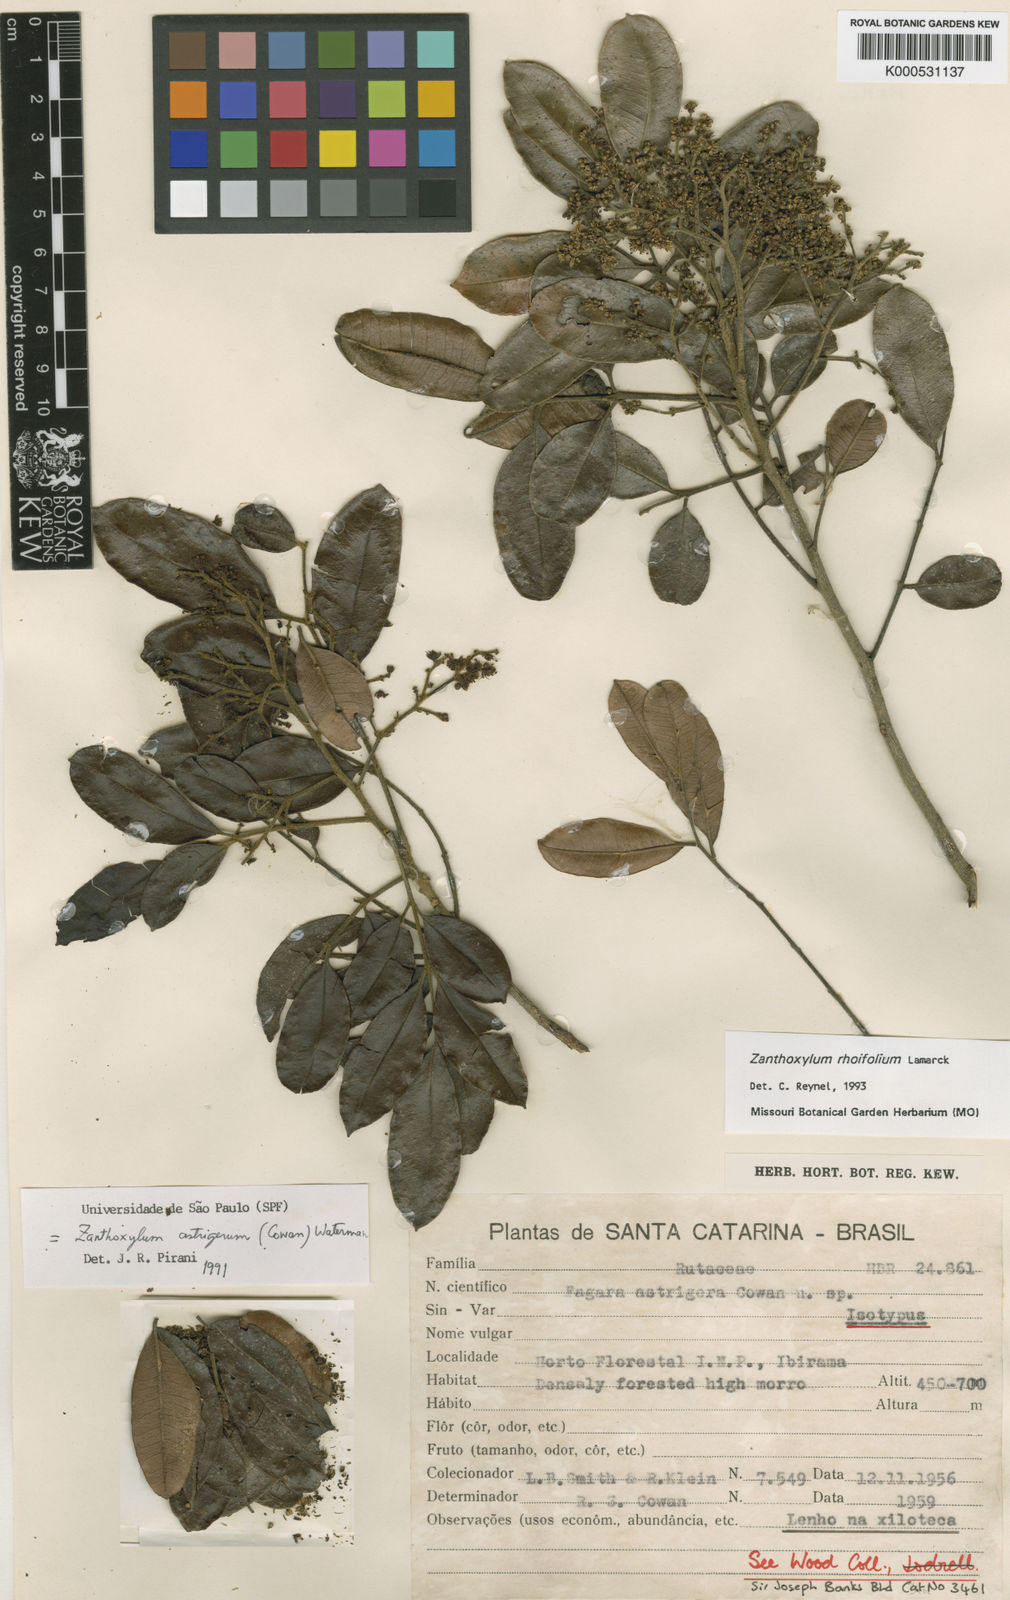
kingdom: Plantae
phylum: Tracheophyta
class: Magnoliopsida
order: Sapindales
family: Rutaceae
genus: Zanthoxylum
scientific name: Zanthoxylum rhoifolium
